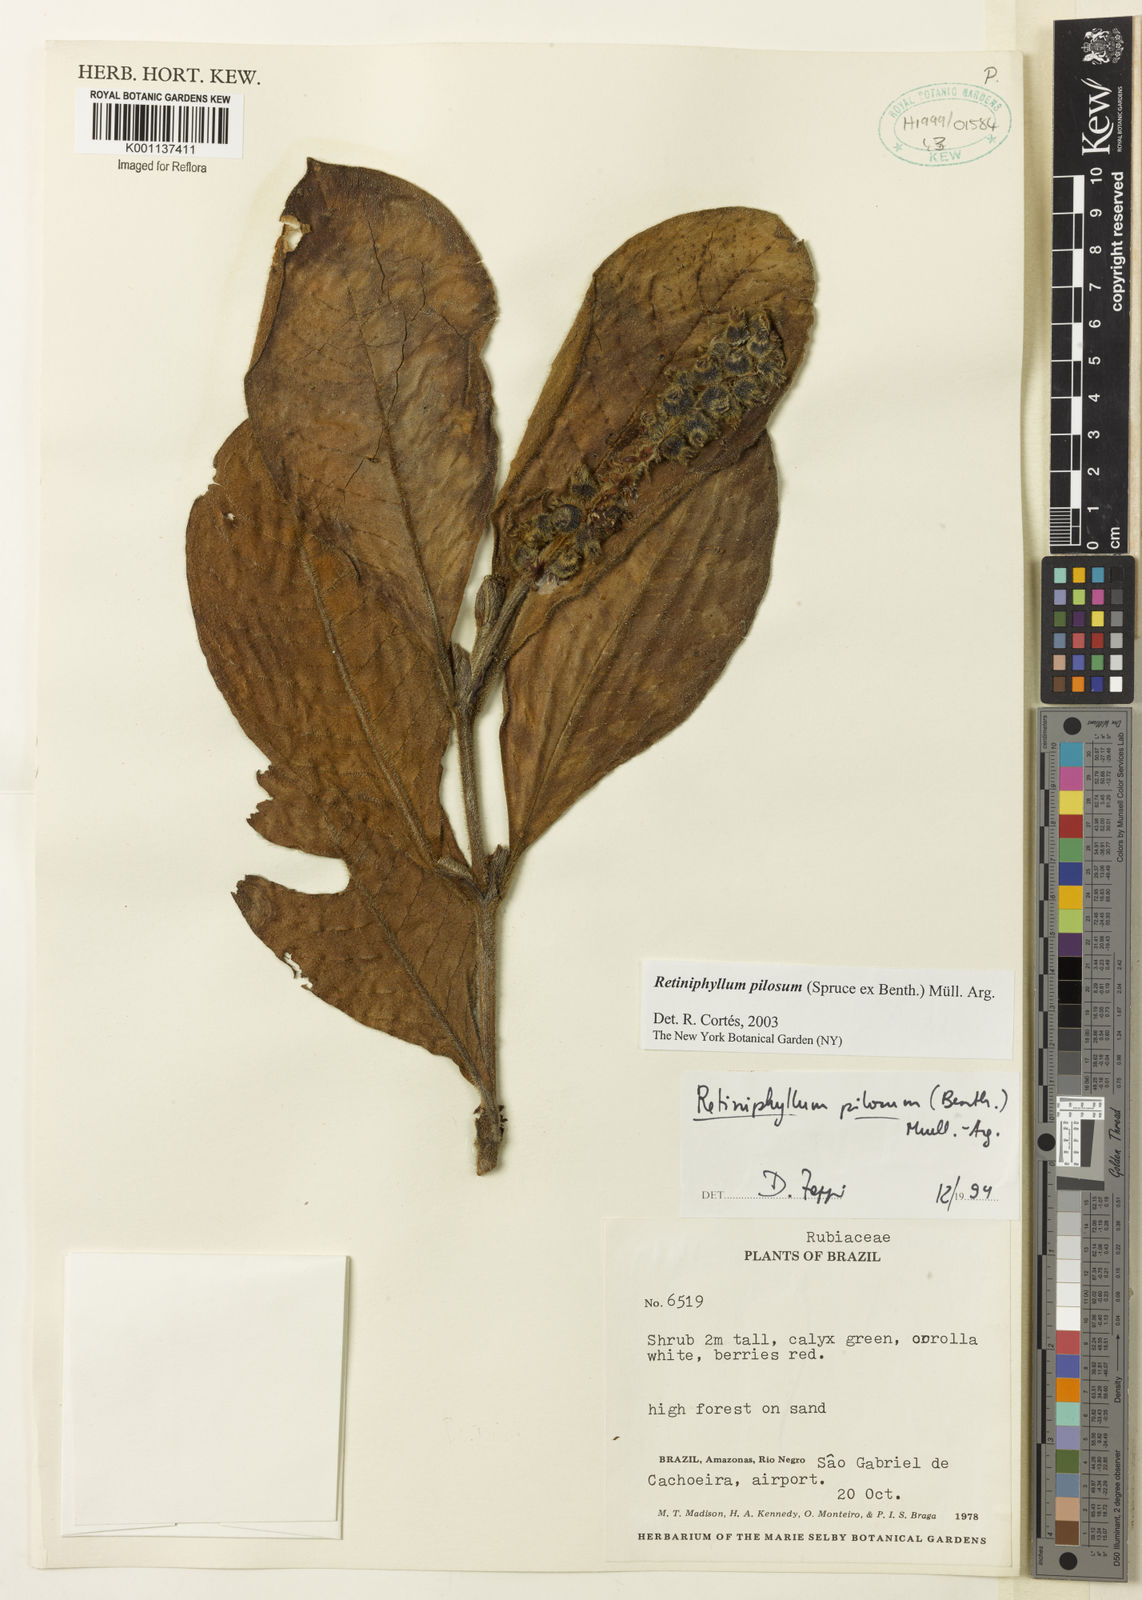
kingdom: Plantae
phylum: Tracheophyta
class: Magnoliopsida
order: Gentianales
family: Rubiaceae
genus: Retiniphyllum
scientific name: Retiniphyllum
